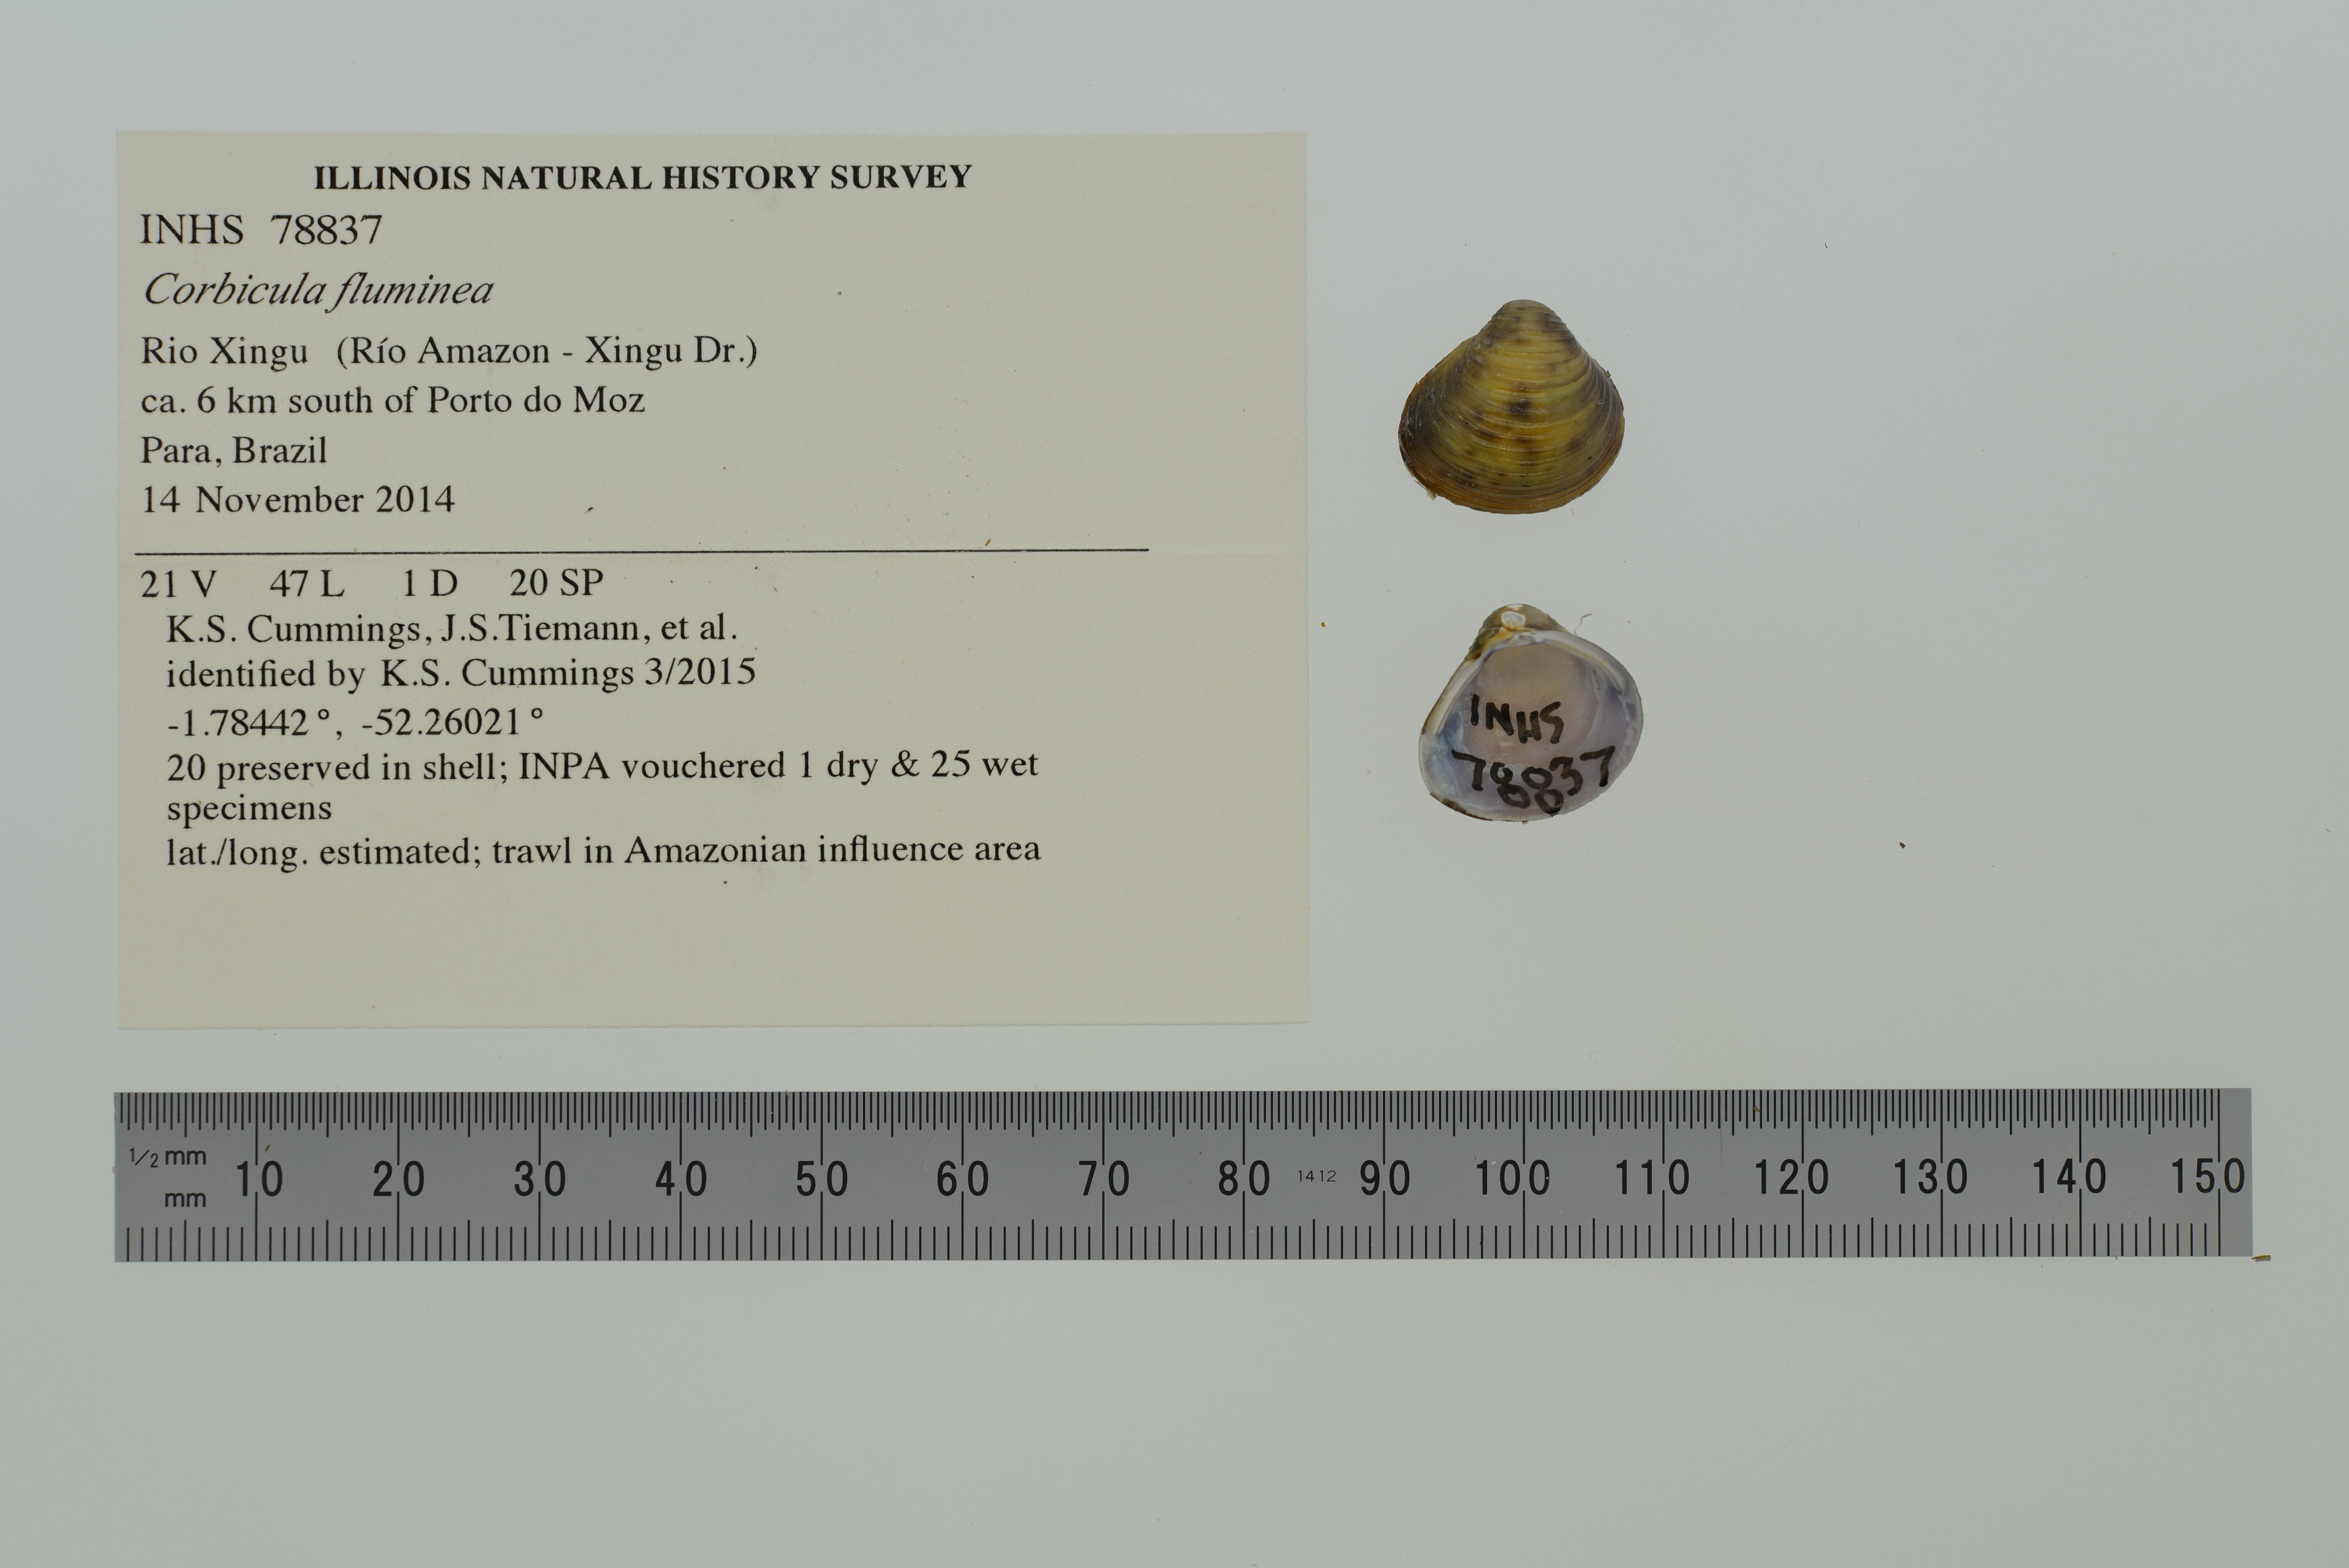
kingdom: Animalia
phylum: Mollusca
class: Bivalvia
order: Venerida
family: Cyrenidae
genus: Corbicula
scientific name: Corbicula fluminea
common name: Asian clam
